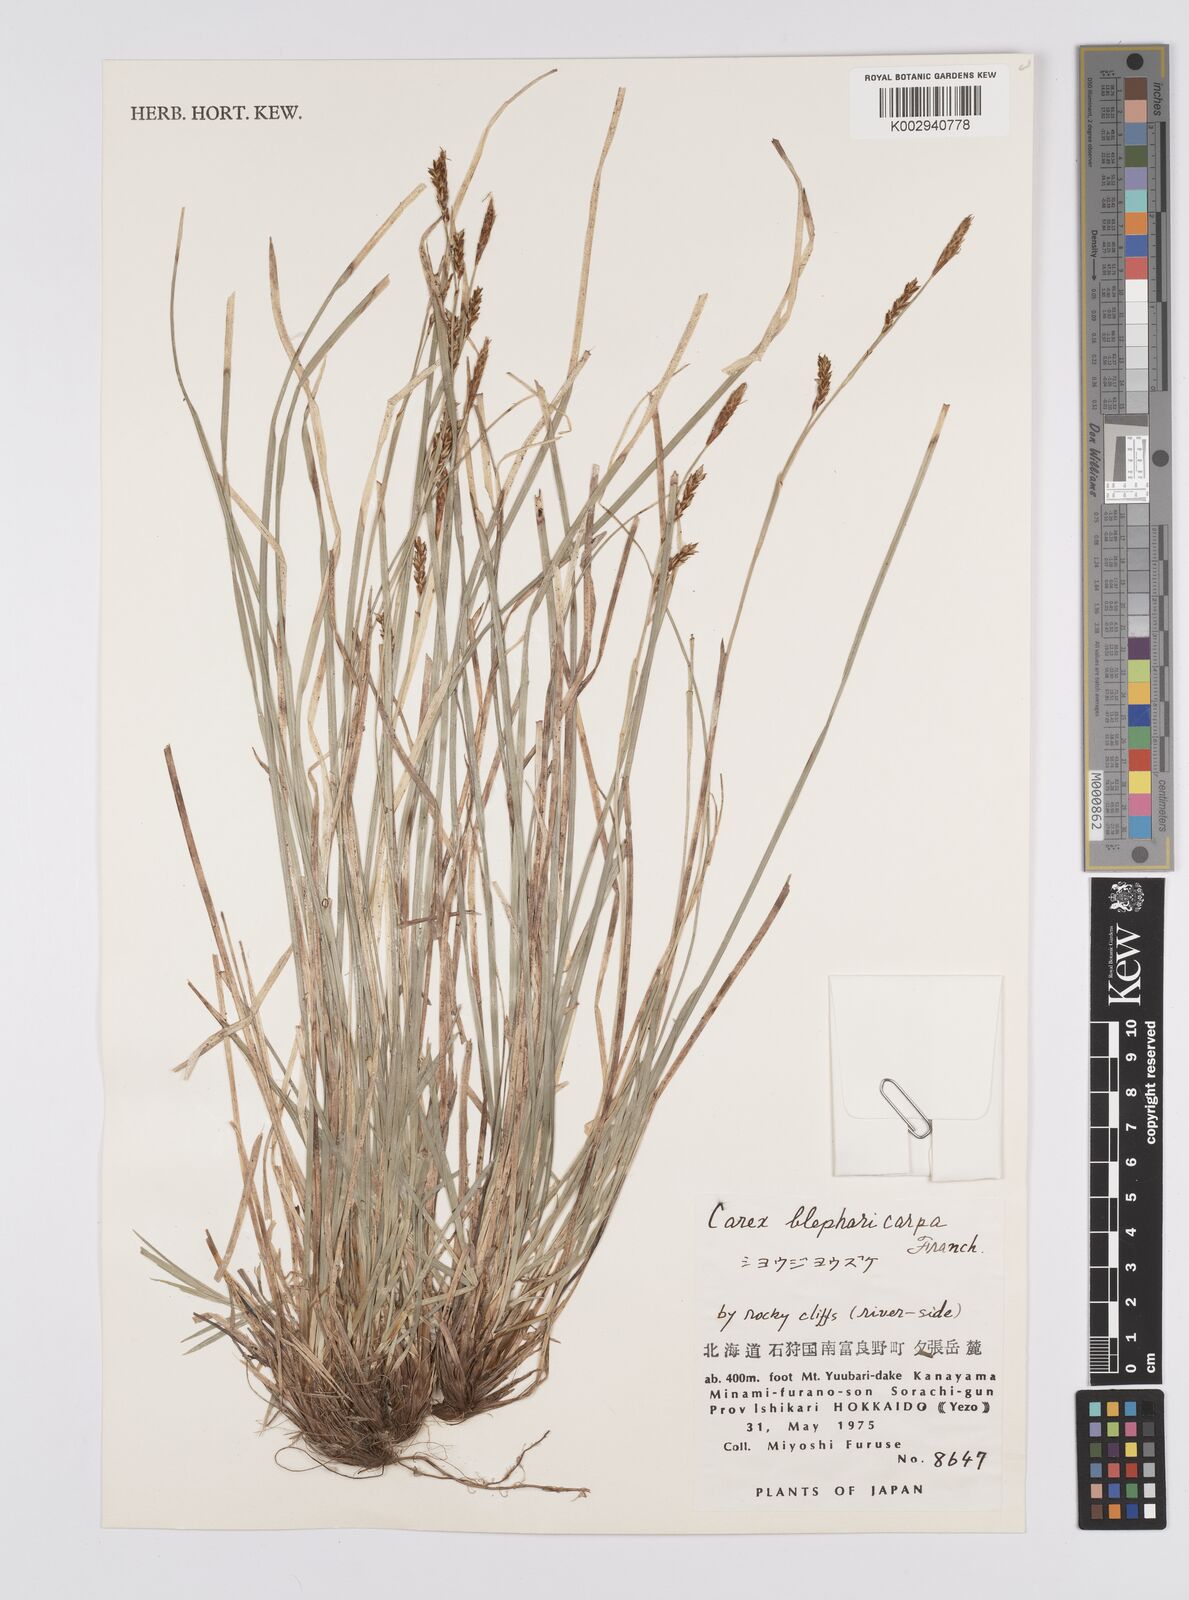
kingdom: Plantae
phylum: Tracheophyta
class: Liliopsida
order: Poales
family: Cyperaceae
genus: Carex
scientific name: Carex blepharicarpa
